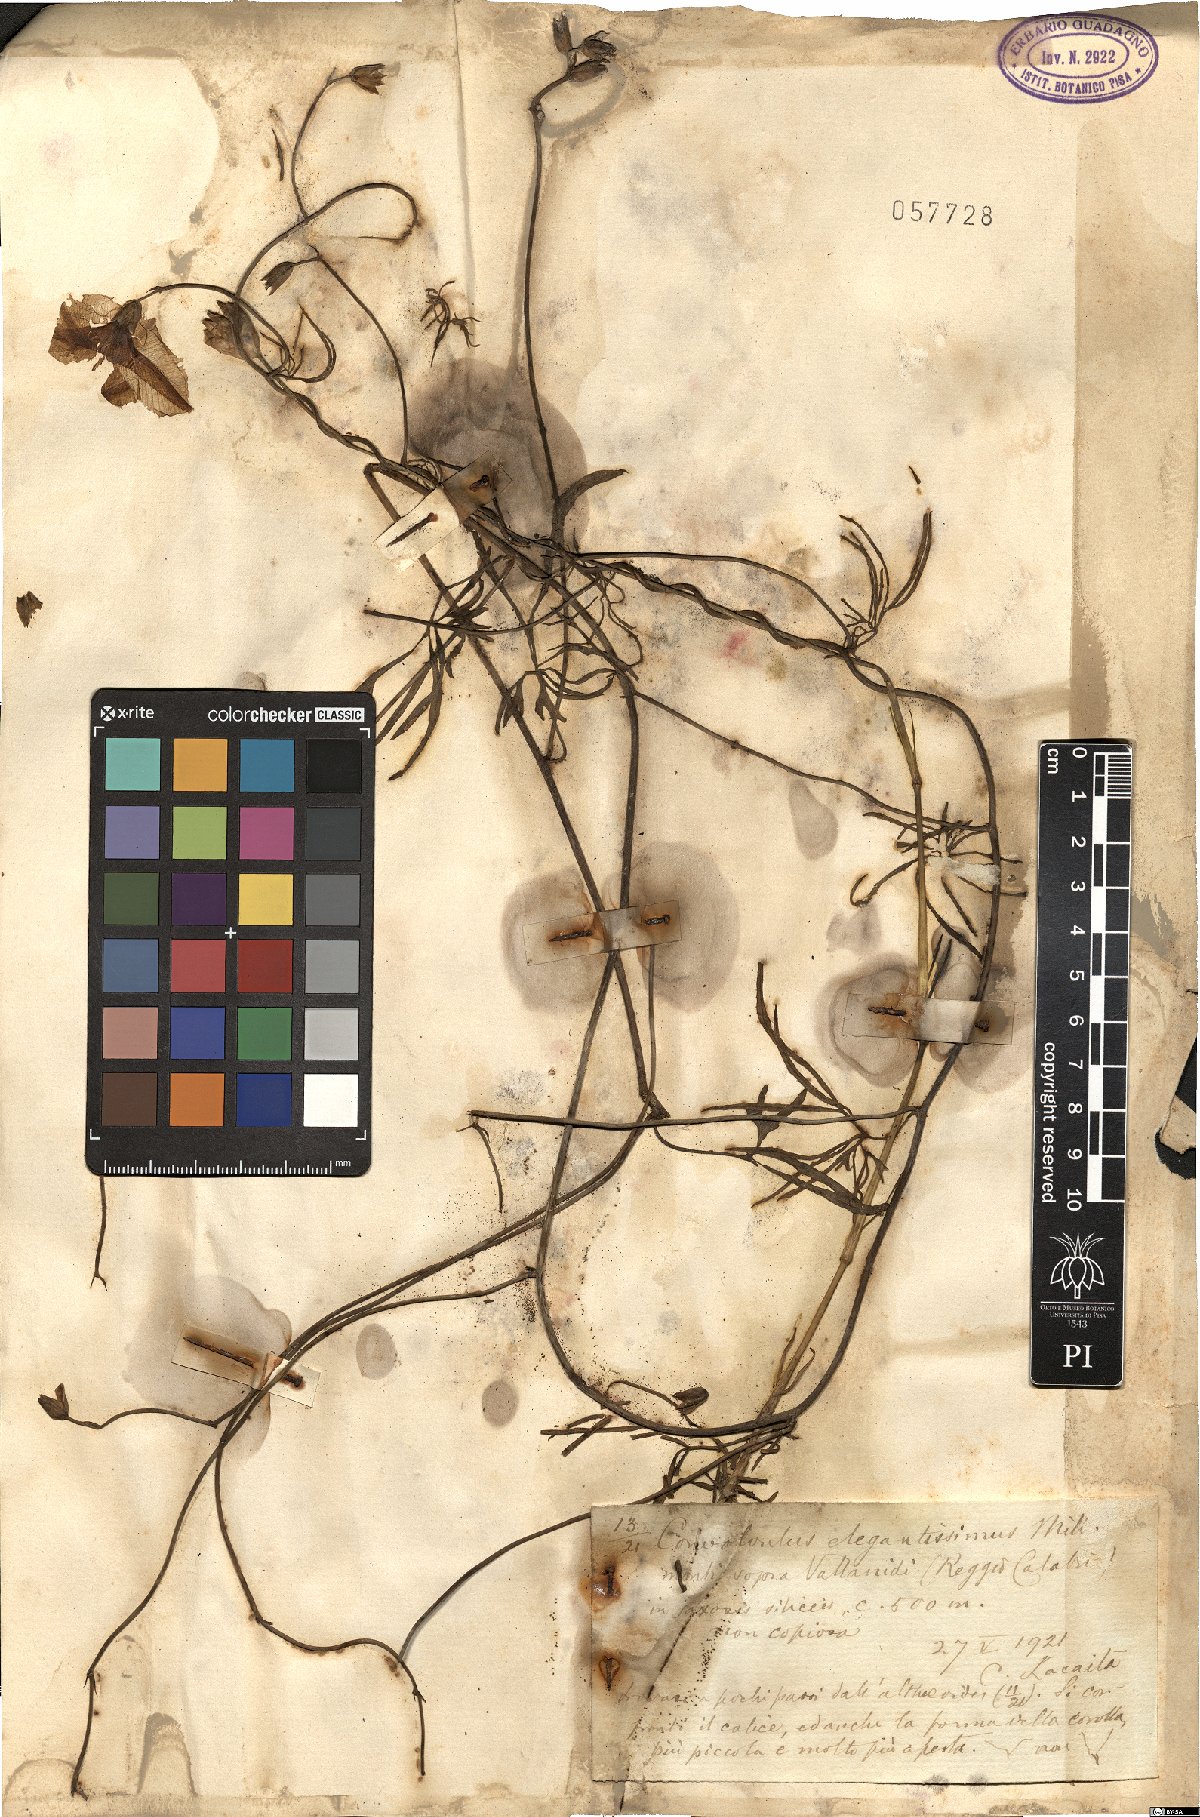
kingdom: Plantae
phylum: Tracheophyta
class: Magnoliopsida
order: Solanales
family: Convolvulaceae
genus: Convolvulus
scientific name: Convolvulus elegantissimus
